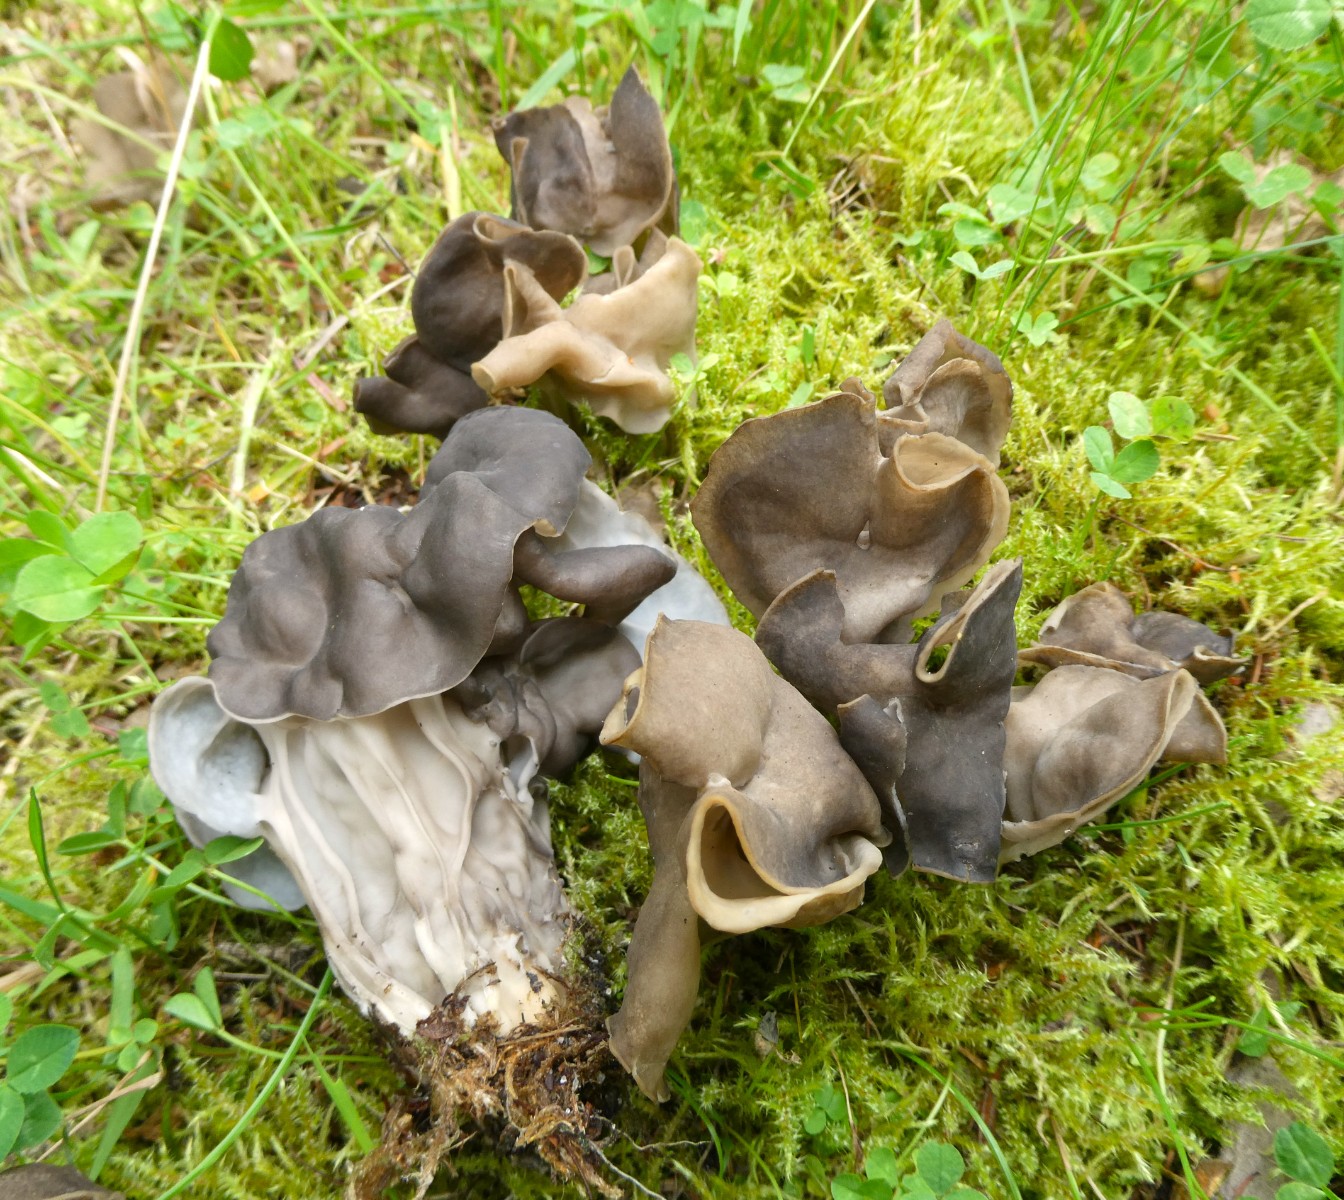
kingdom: Fungi
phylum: Ascomycota
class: Pezizomycetes
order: Pezizales
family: Helvellaceae
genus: Helvella
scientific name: Helvella lacunosa
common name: grubet foldhat
